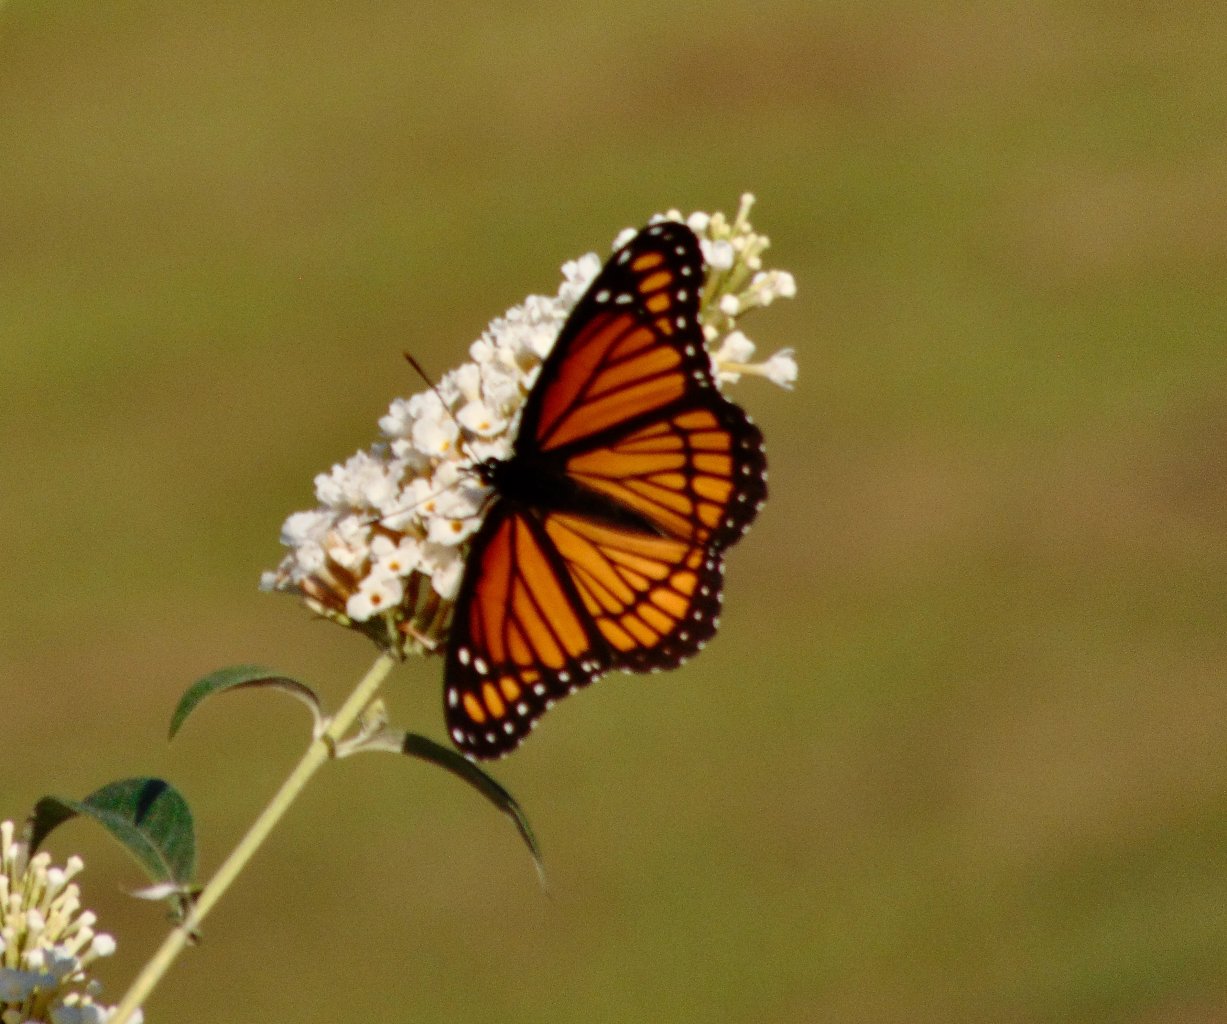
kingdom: Animalia
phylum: Arthropoda
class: Insecta
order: Lepidoptera
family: Nymphalidae
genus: Limenitis
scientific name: Limenitis archippus
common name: Viceroy
